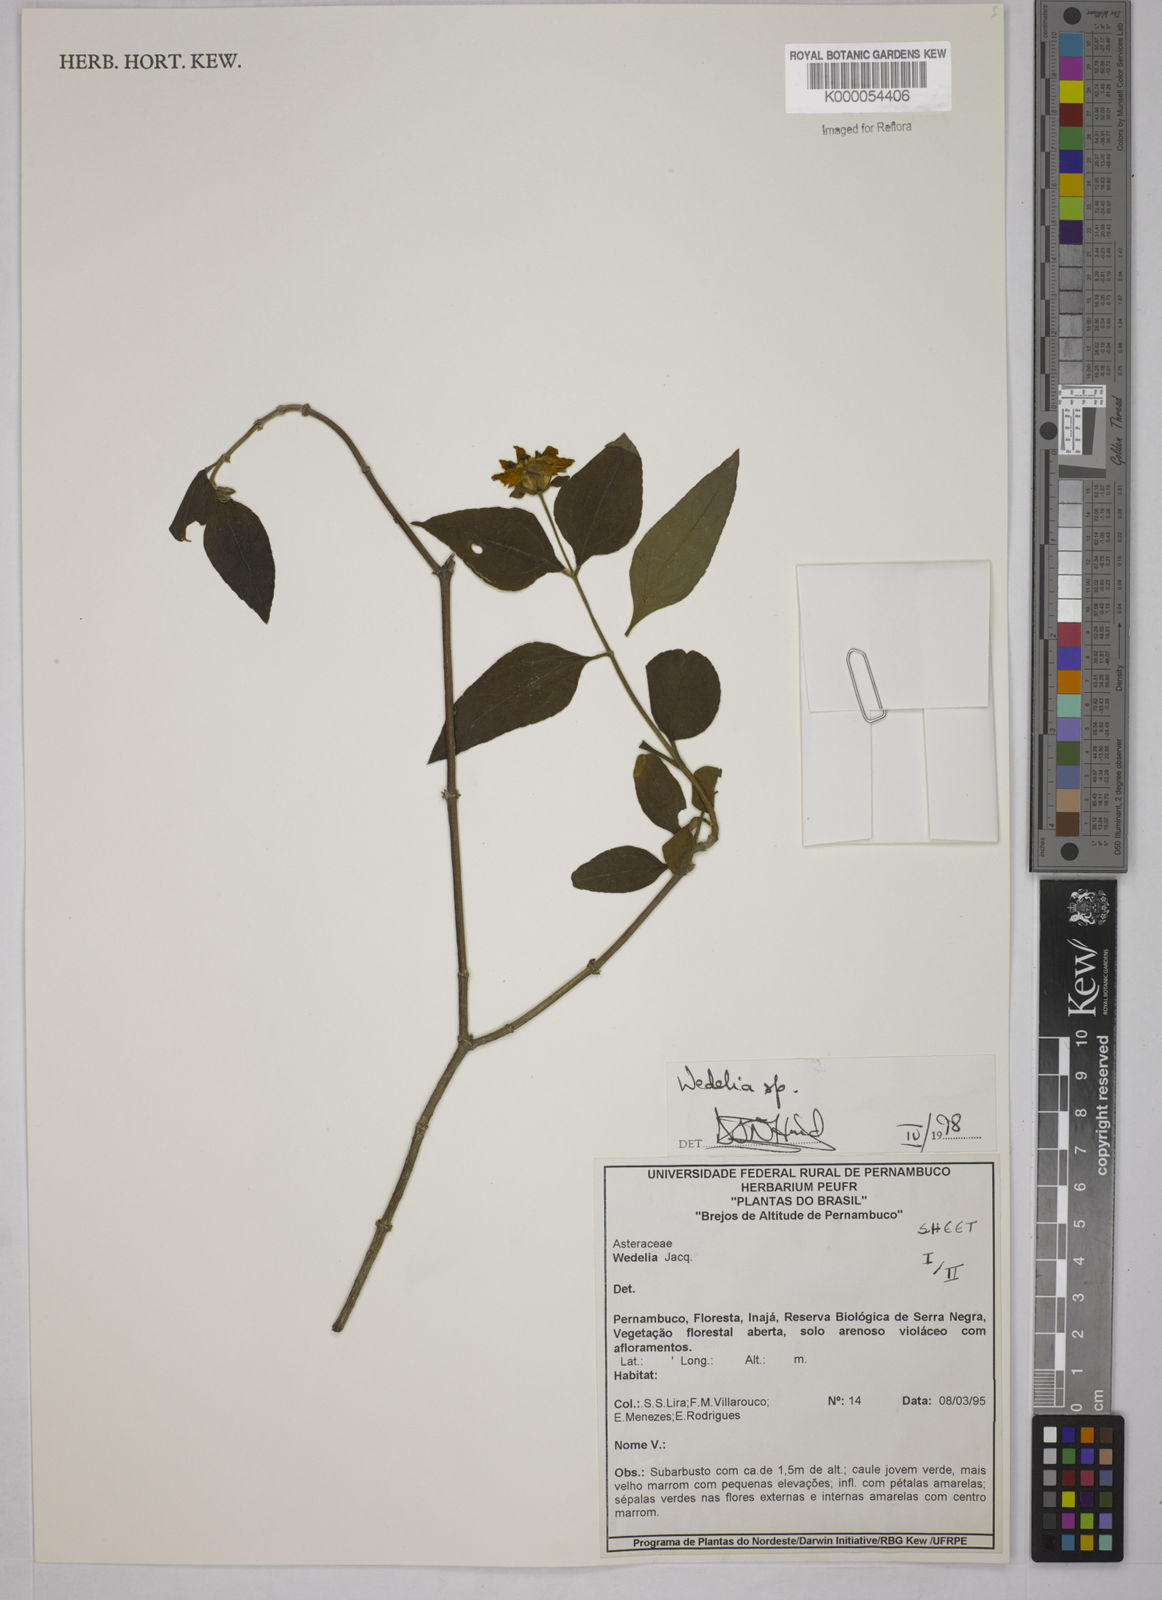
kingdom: Plantae
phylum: Tracheophyta
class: Magnoliopsida
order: Asterales
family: Asteraceae
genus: Wedelia
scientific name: Wedelia
